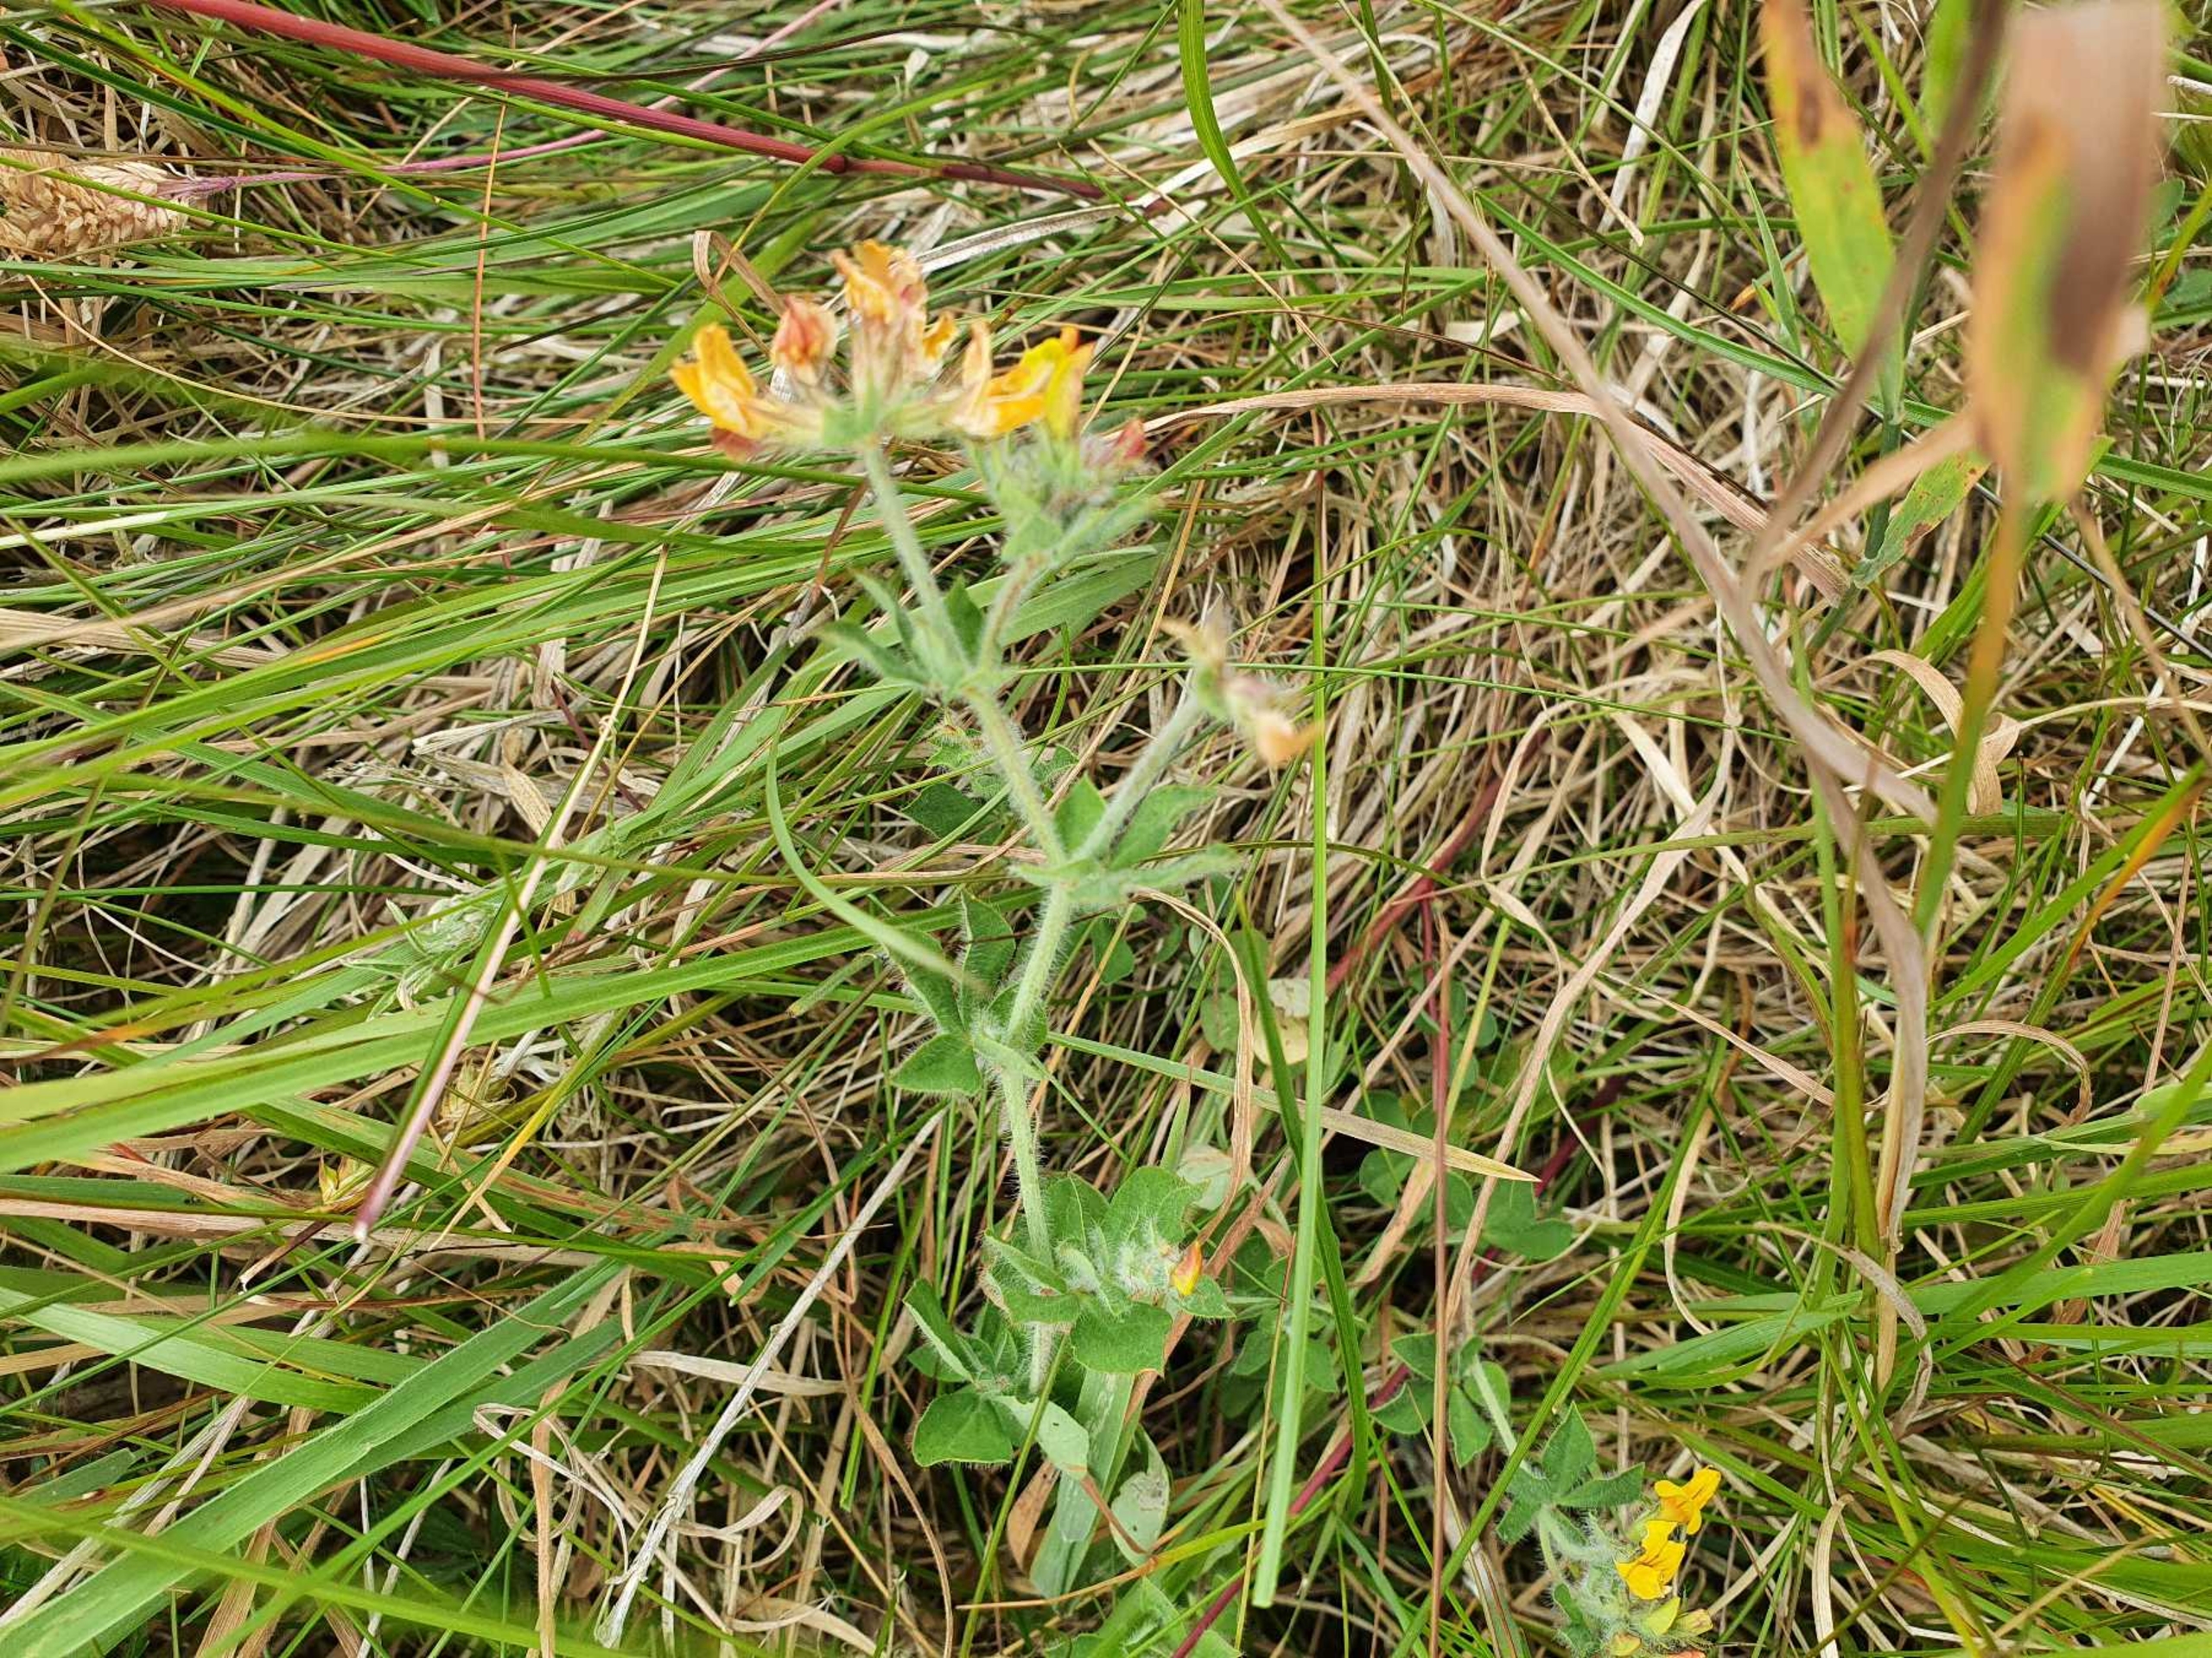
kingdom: Plantae
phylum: Tracheophyta
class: Magnoliopsida
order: Fabales
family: Fabaceae
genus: Lotus
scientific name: Lotus pedunculatus
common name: Klit-kællingetand
